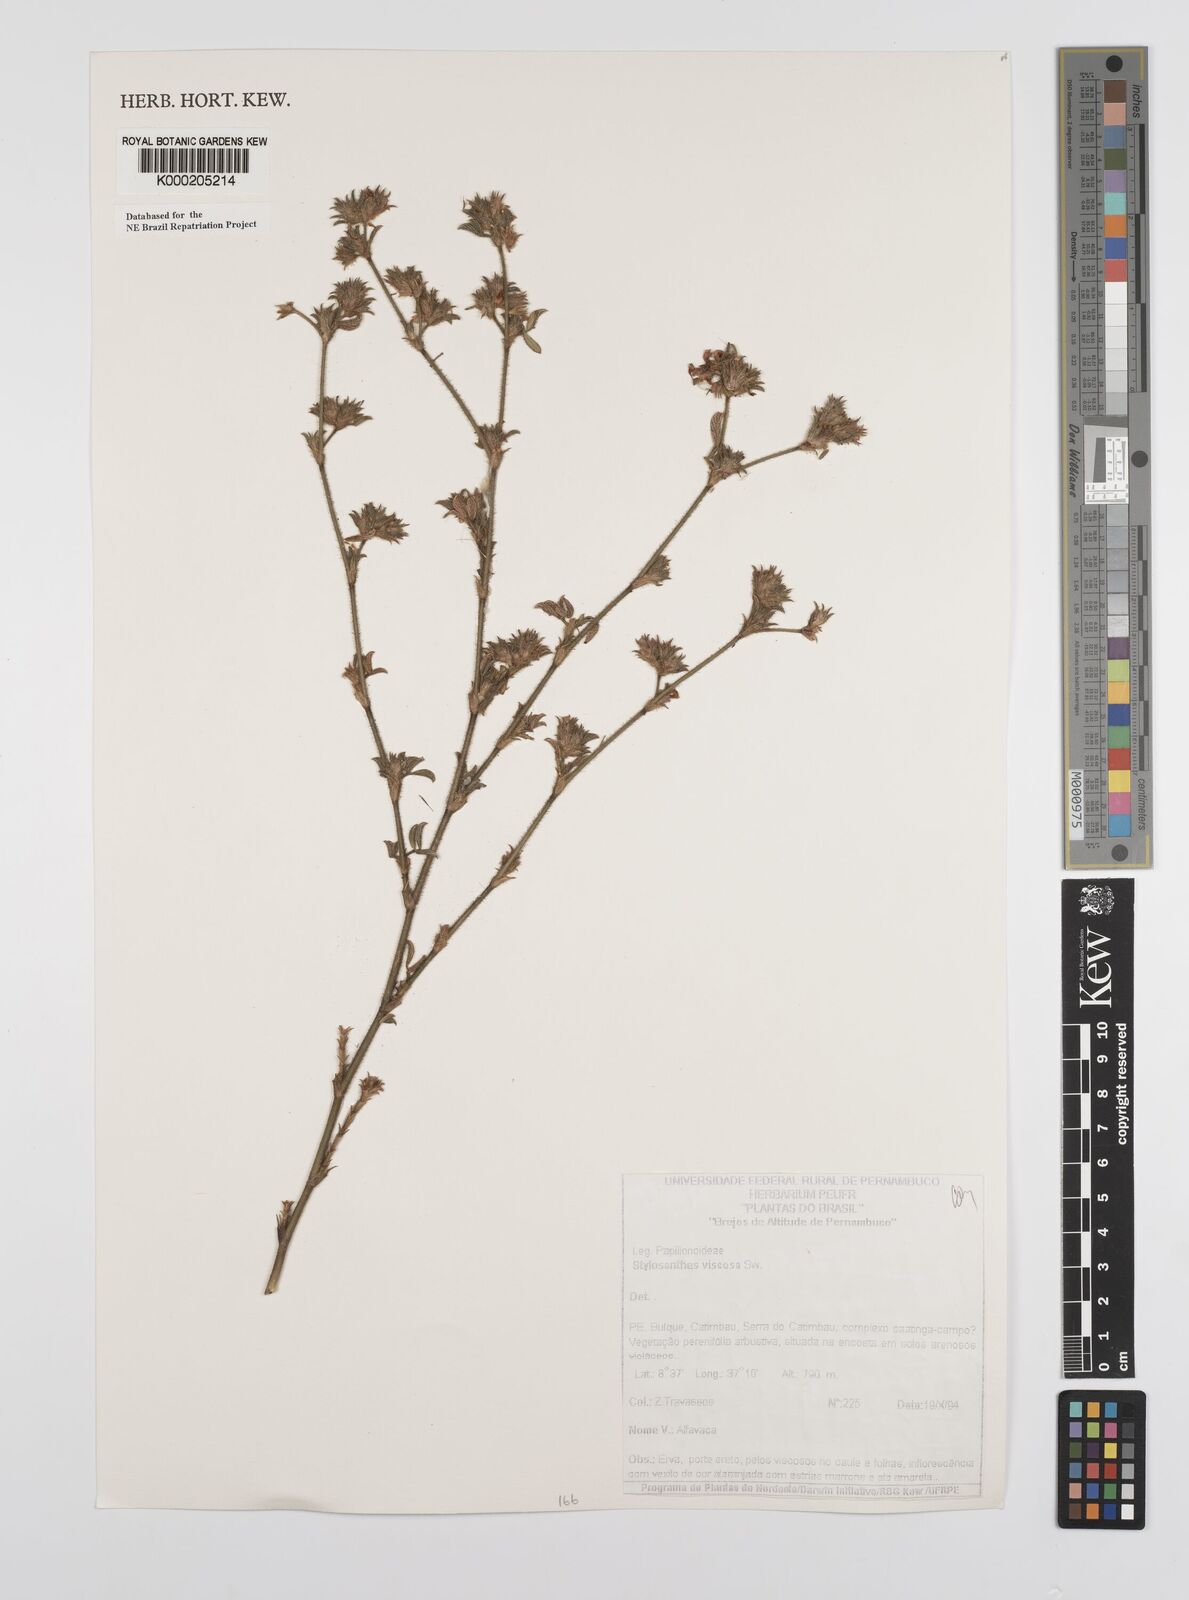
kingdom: Plantae
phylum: Tracheophyta
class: Magnoliopsida
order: Fabales
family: Fabaceae
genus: Stylosanthes
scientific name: Stylosanthes viscosa
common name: Viscid pencil-flower
